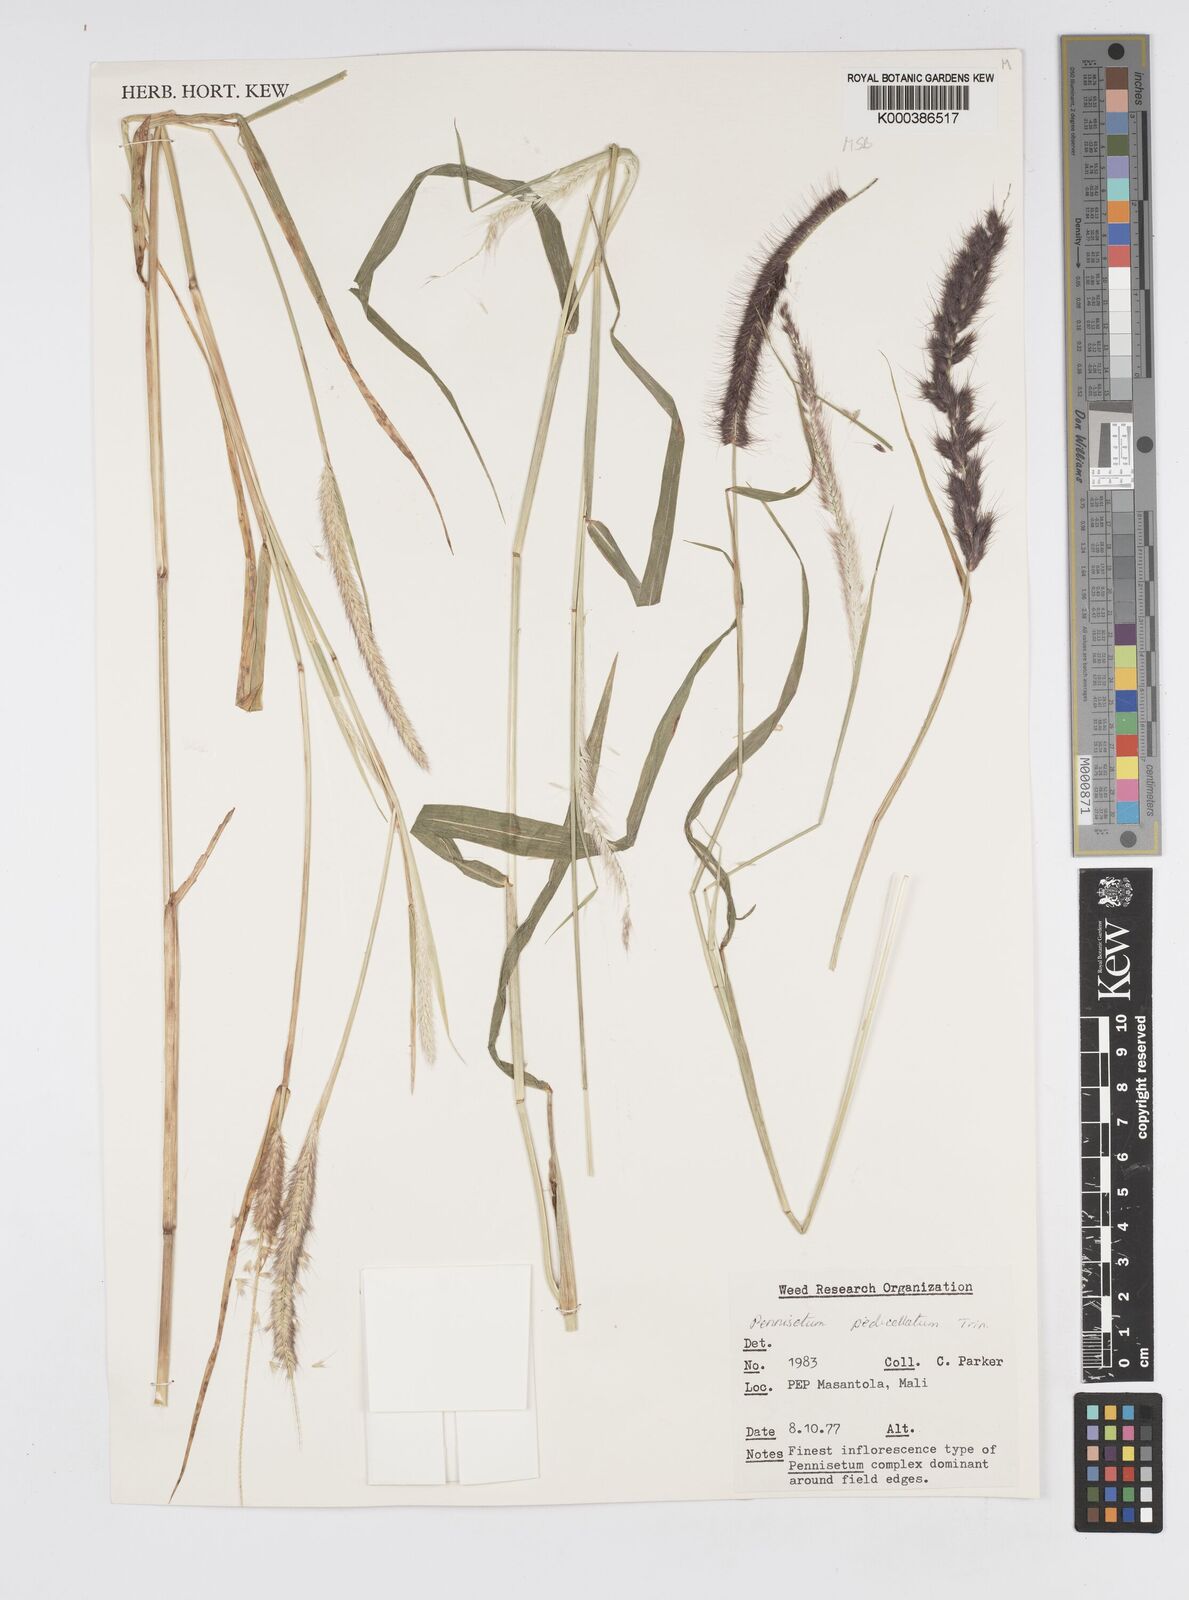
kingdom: Plantae
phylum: Tracheophyta
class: Liliopsida
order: Poales
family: Poaceae
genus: Cenchrus
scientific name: Cenchrus pedicellatus
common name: Hairy fountain grass
